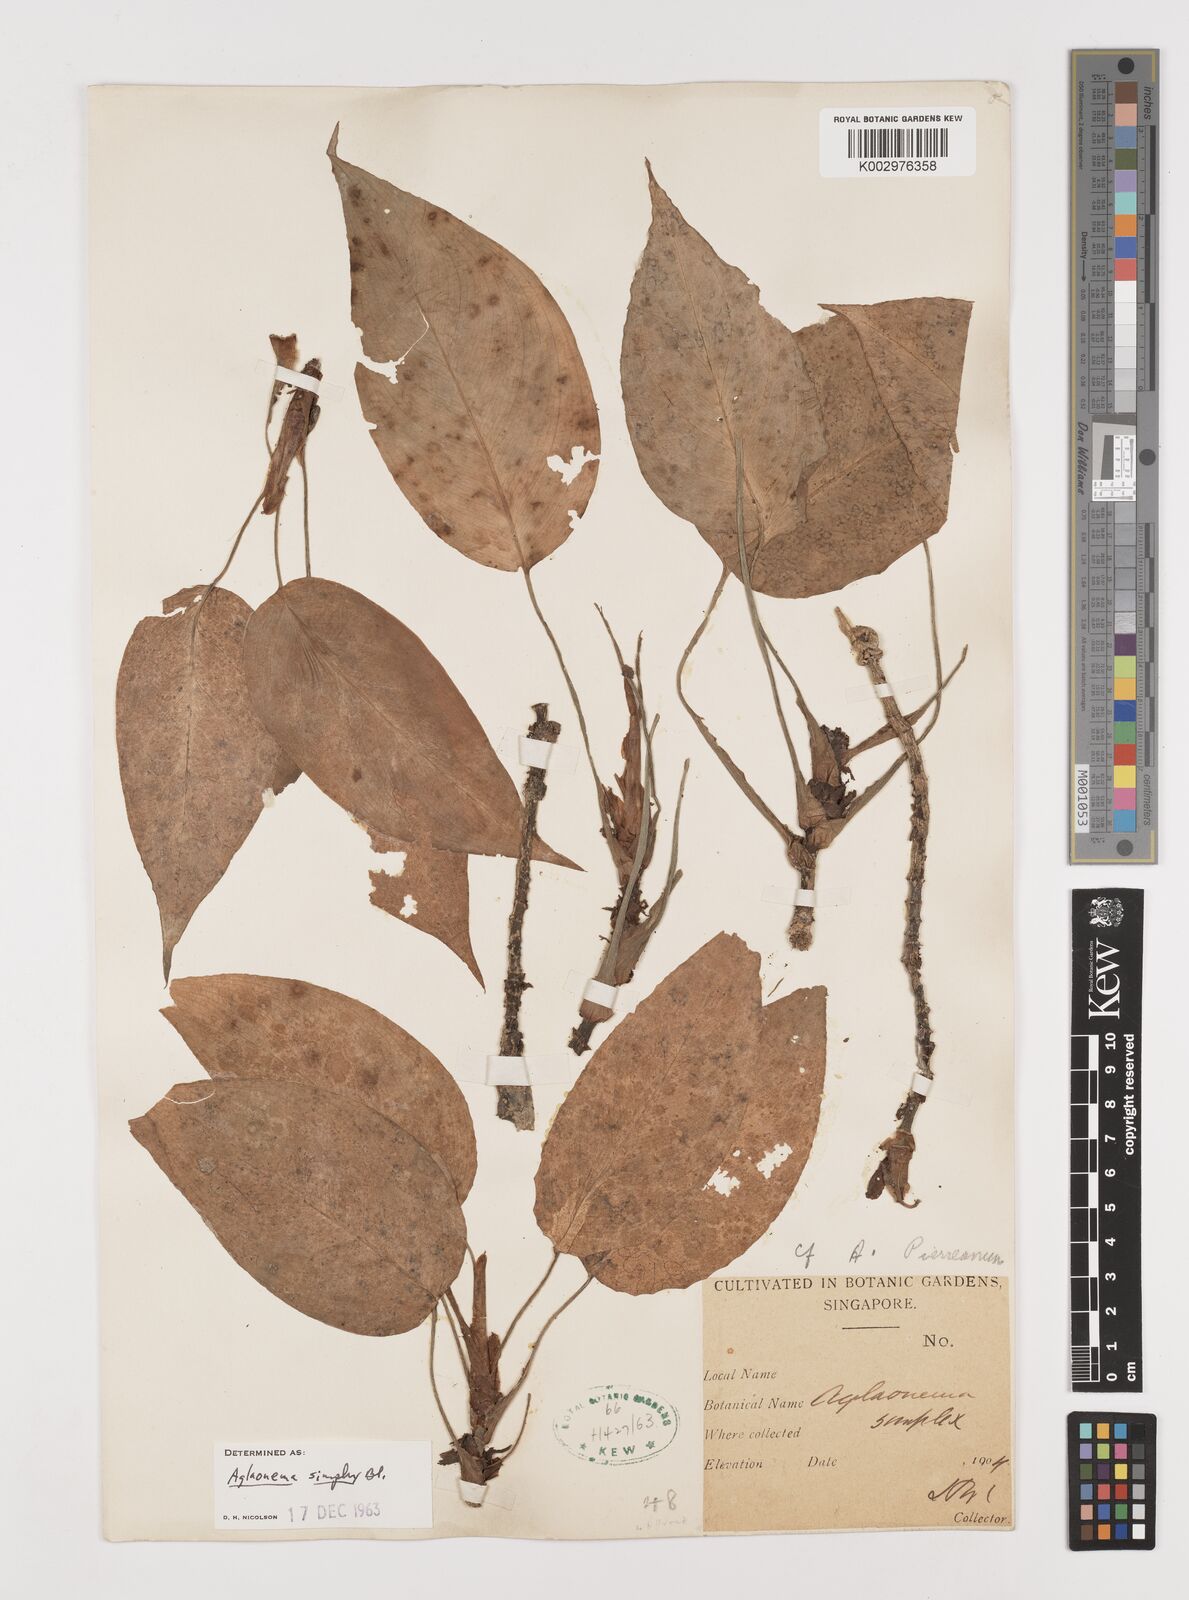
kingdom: Plantae
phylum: Tracheophyta
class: Liliopsida
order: Alismatales
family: Araceae
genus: Aglaonema
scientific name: Aglaonema simplex
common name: Malayan-sword
